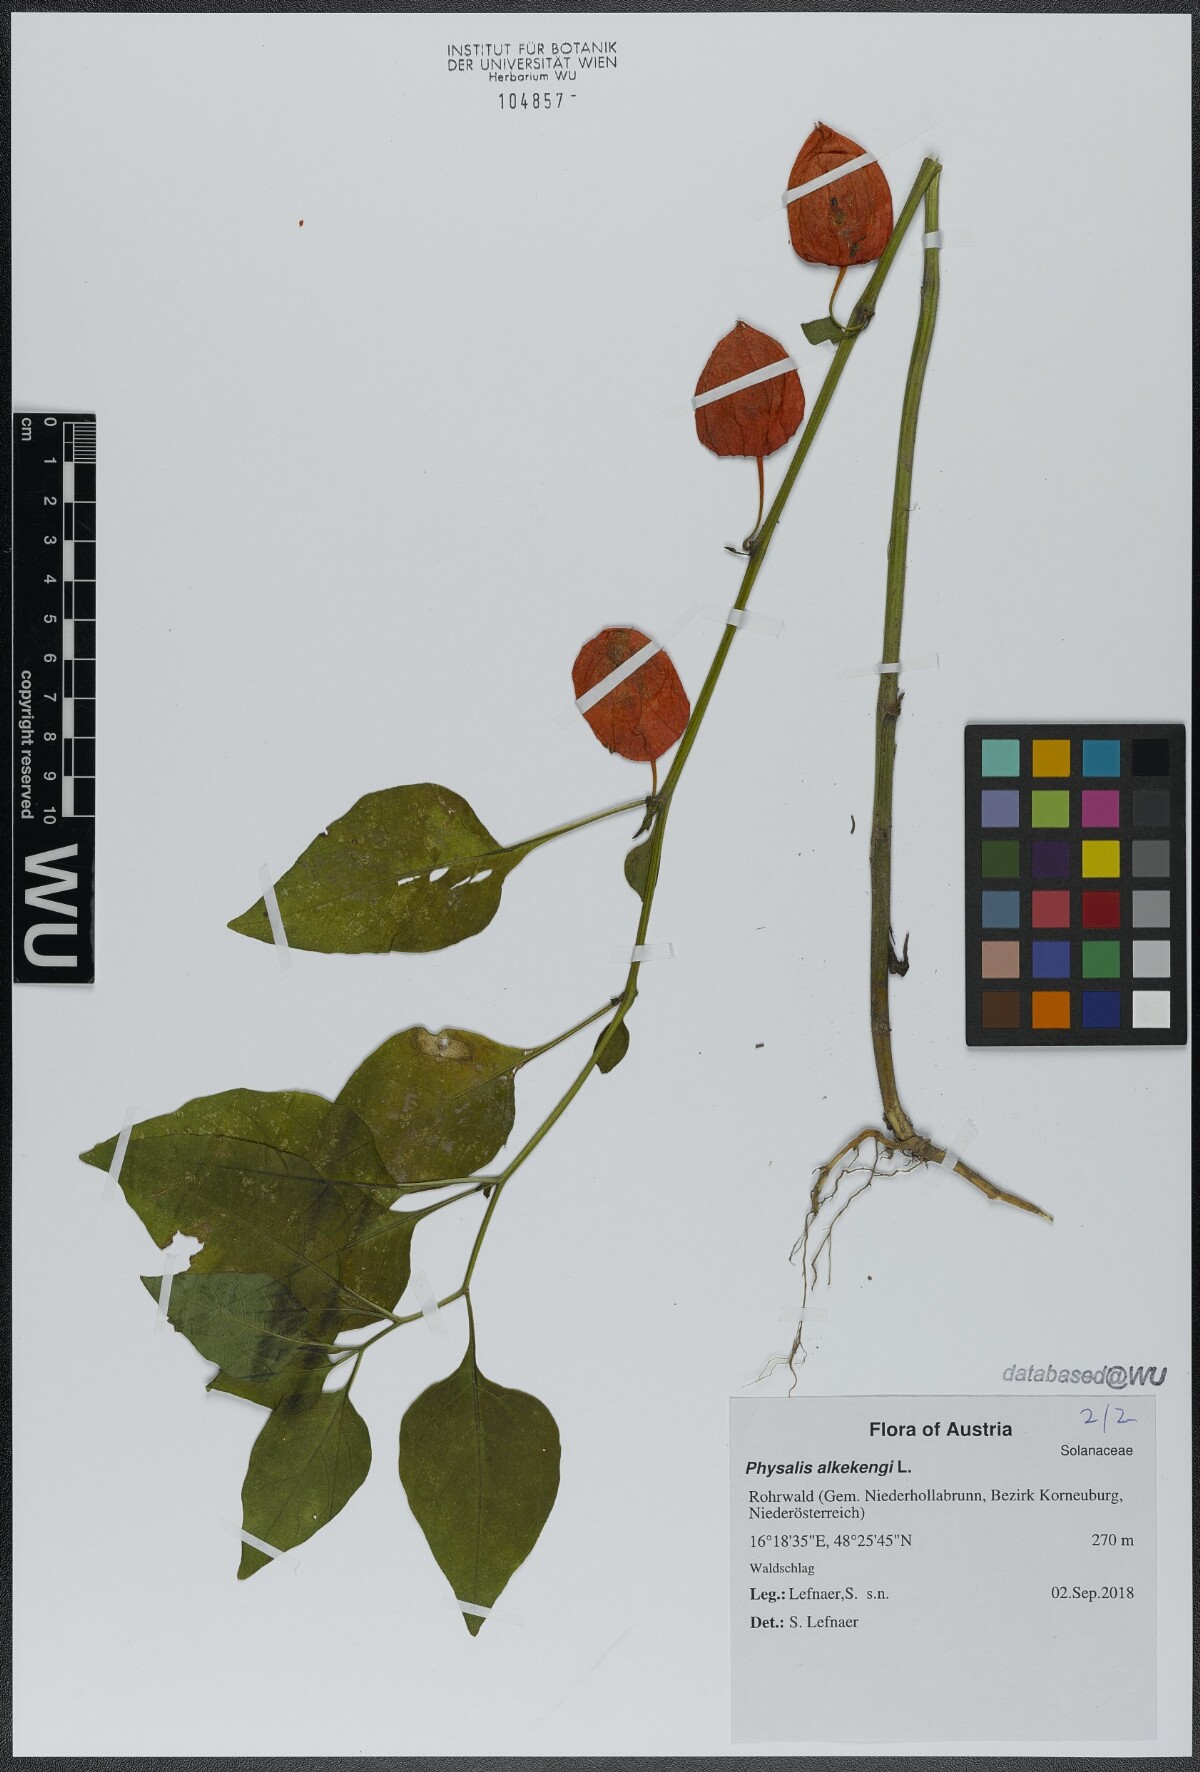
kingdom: Plantae
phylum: Tracheophyta
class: Magnoliopsida
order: Solanales
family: Solanaceae
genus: Alkekengi
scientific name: Alkekengi officinarum
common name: Japanese-lantern
